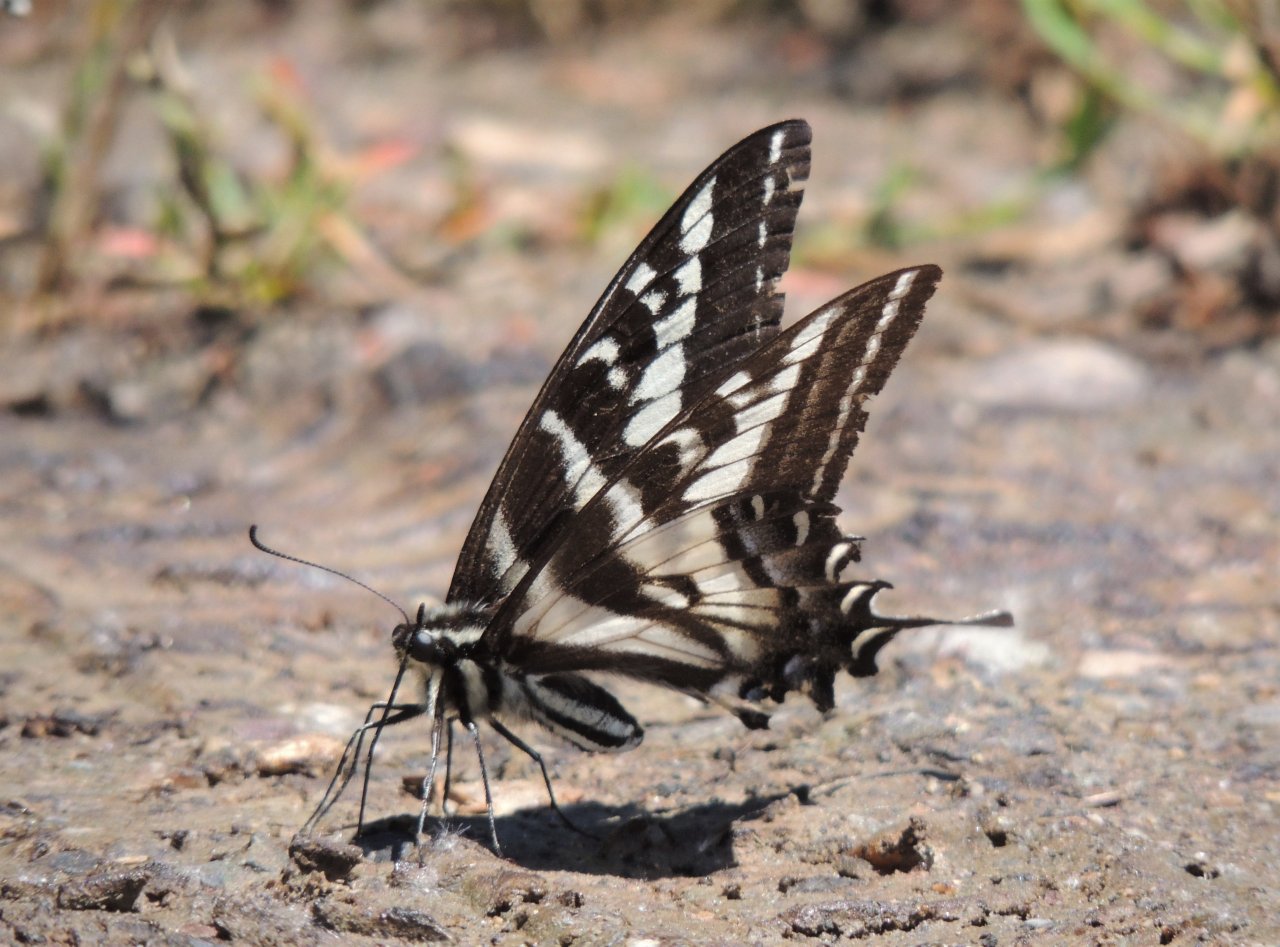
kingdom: Animalia
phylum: Arthropoda
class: Insecta
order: Lepidoptera
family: Papilionidae
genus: Pterourus
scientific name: Pterourus eurymedon
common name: Pale Swallowtail
